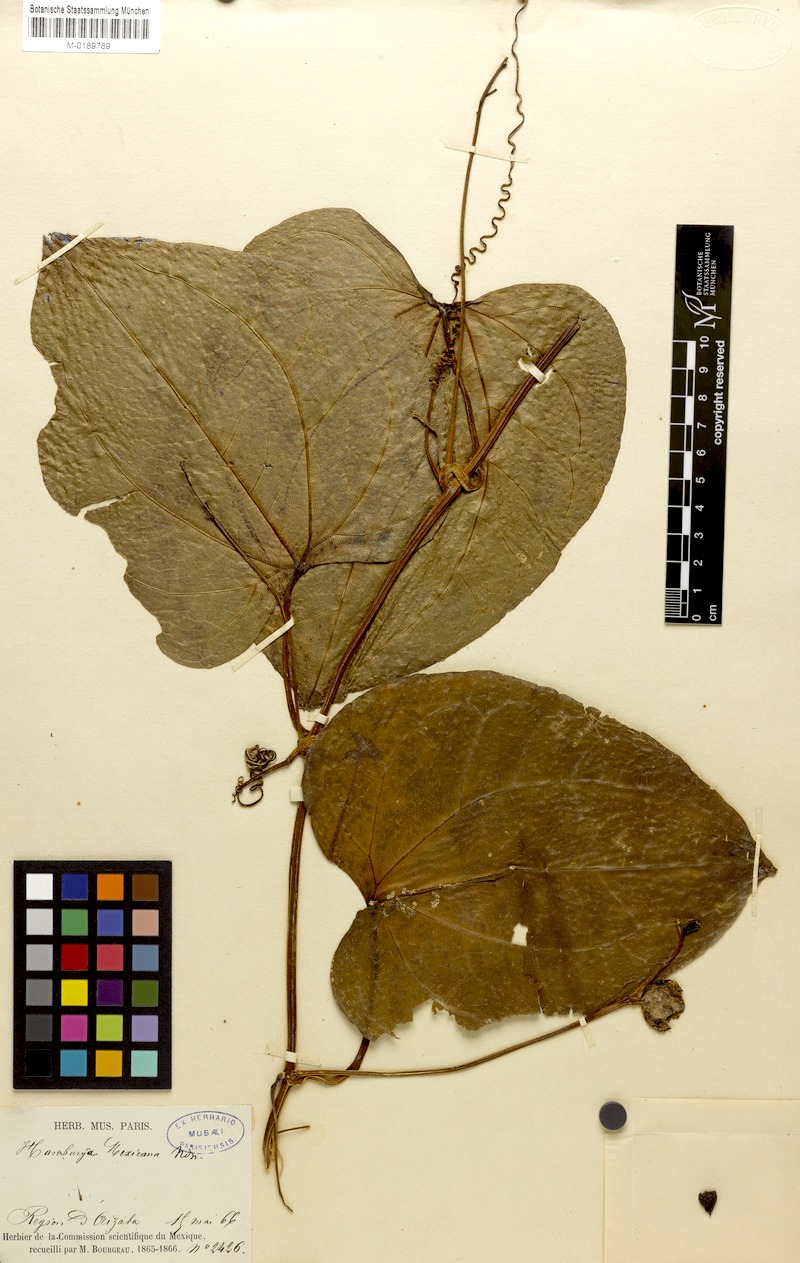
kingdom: Plantae
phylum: Tracheophyta
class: Magnoliopsida
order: Cucurbitales
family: Cucurbitaceae
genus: Hanburia
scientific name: Hanburia mexicana
